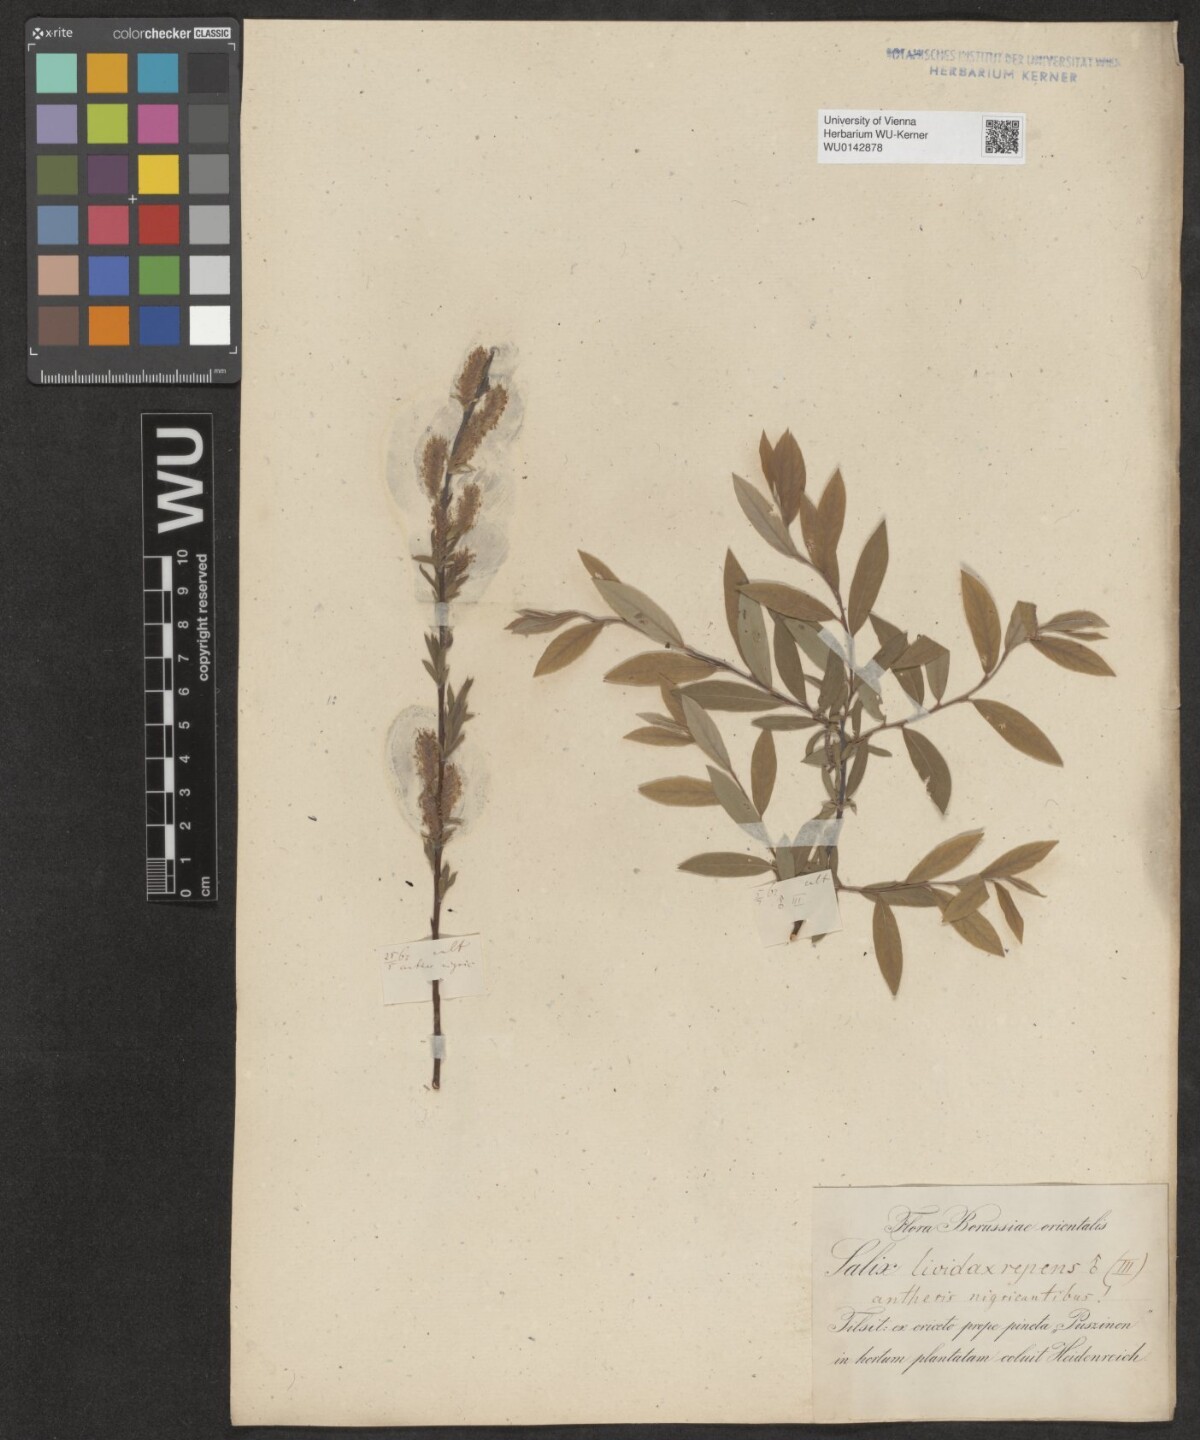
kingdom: Plantae
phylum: Tracheophyta
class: Magnoliopsida
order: Malpighiales
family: Salicaceae
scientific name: Salicaceae
